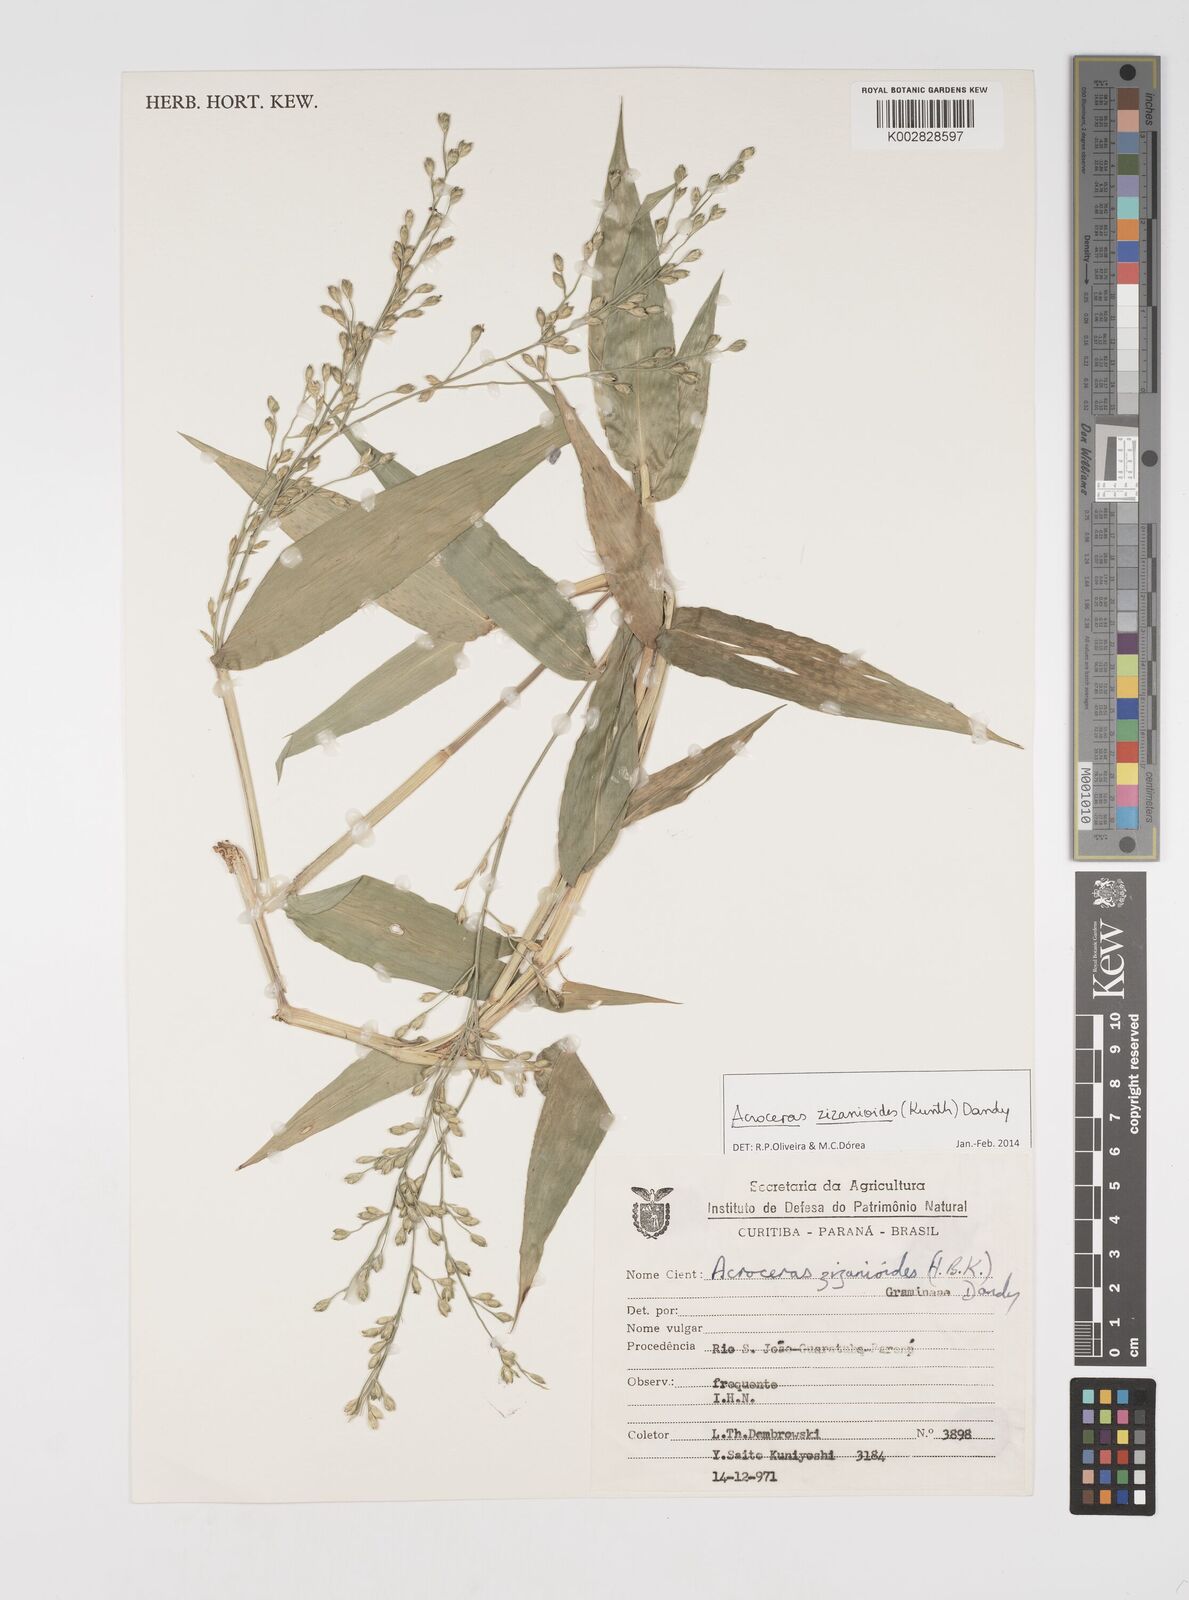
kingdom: Plantae
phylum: Tracheophyta
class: Liliopsida
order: Poales
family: Poaceae
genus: Acroceras
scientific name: Acroceras zizanioides
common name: Oat grass
